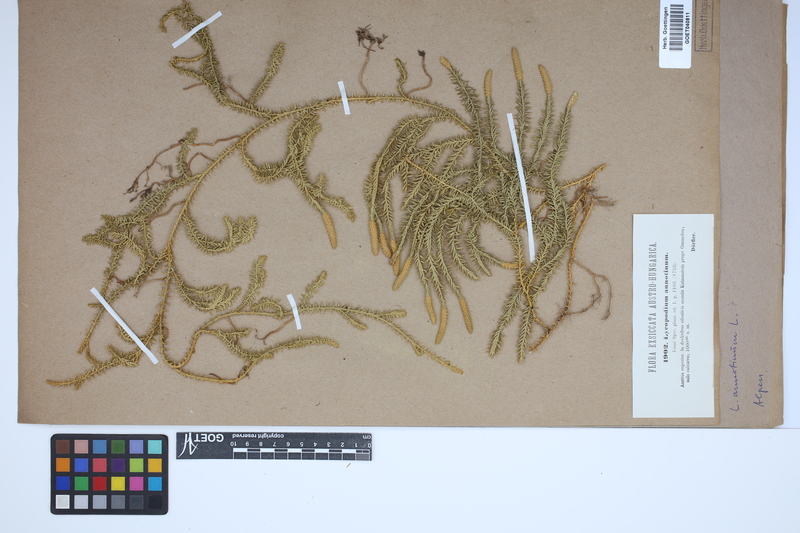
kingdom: Plantae
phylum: Tracheophyta
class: Lycopodiopsida
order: Lycopodiales
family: Lycopodiaceae
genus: Spinulum
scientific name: Spinulum annotinum
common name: Interrupted club-moss
